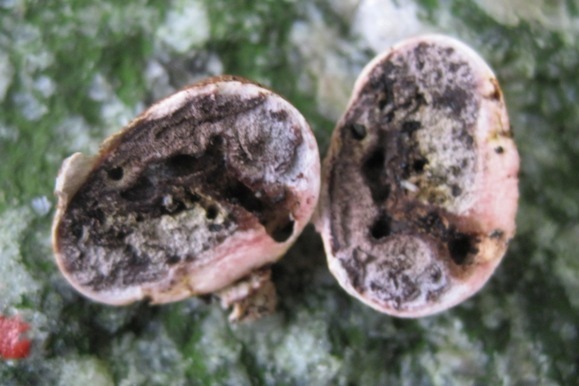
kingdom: Fungi
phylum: Basidiomycota
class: Agaricomycetes
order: Boletales
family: Sclerodermataceae
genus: Scleroderma
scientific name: Scleroderma areolatum
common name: plettet bruskbold
